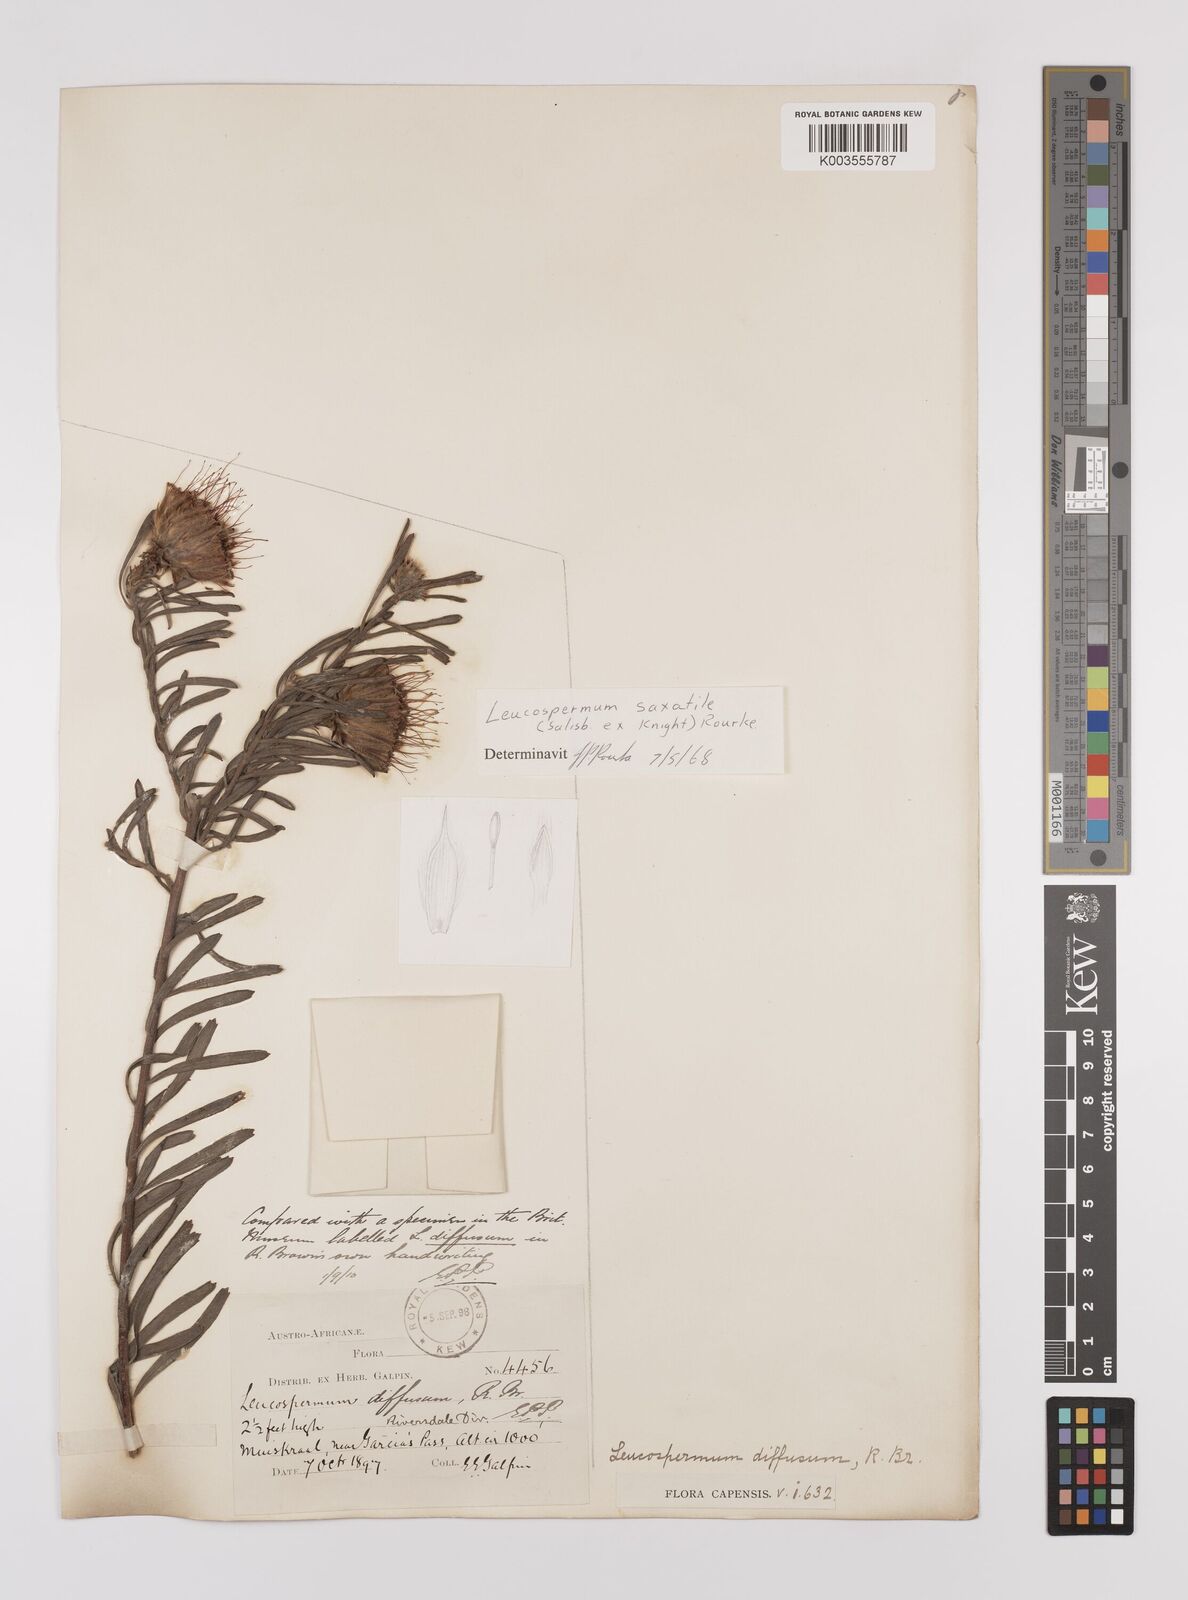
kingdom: Plantae
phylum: Tracheophyta
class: Magnoliopsida
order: Proteales
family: Proteaceae
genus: Leucospermum
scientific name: Leucospermum saxatile
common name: Karoo pincushion
